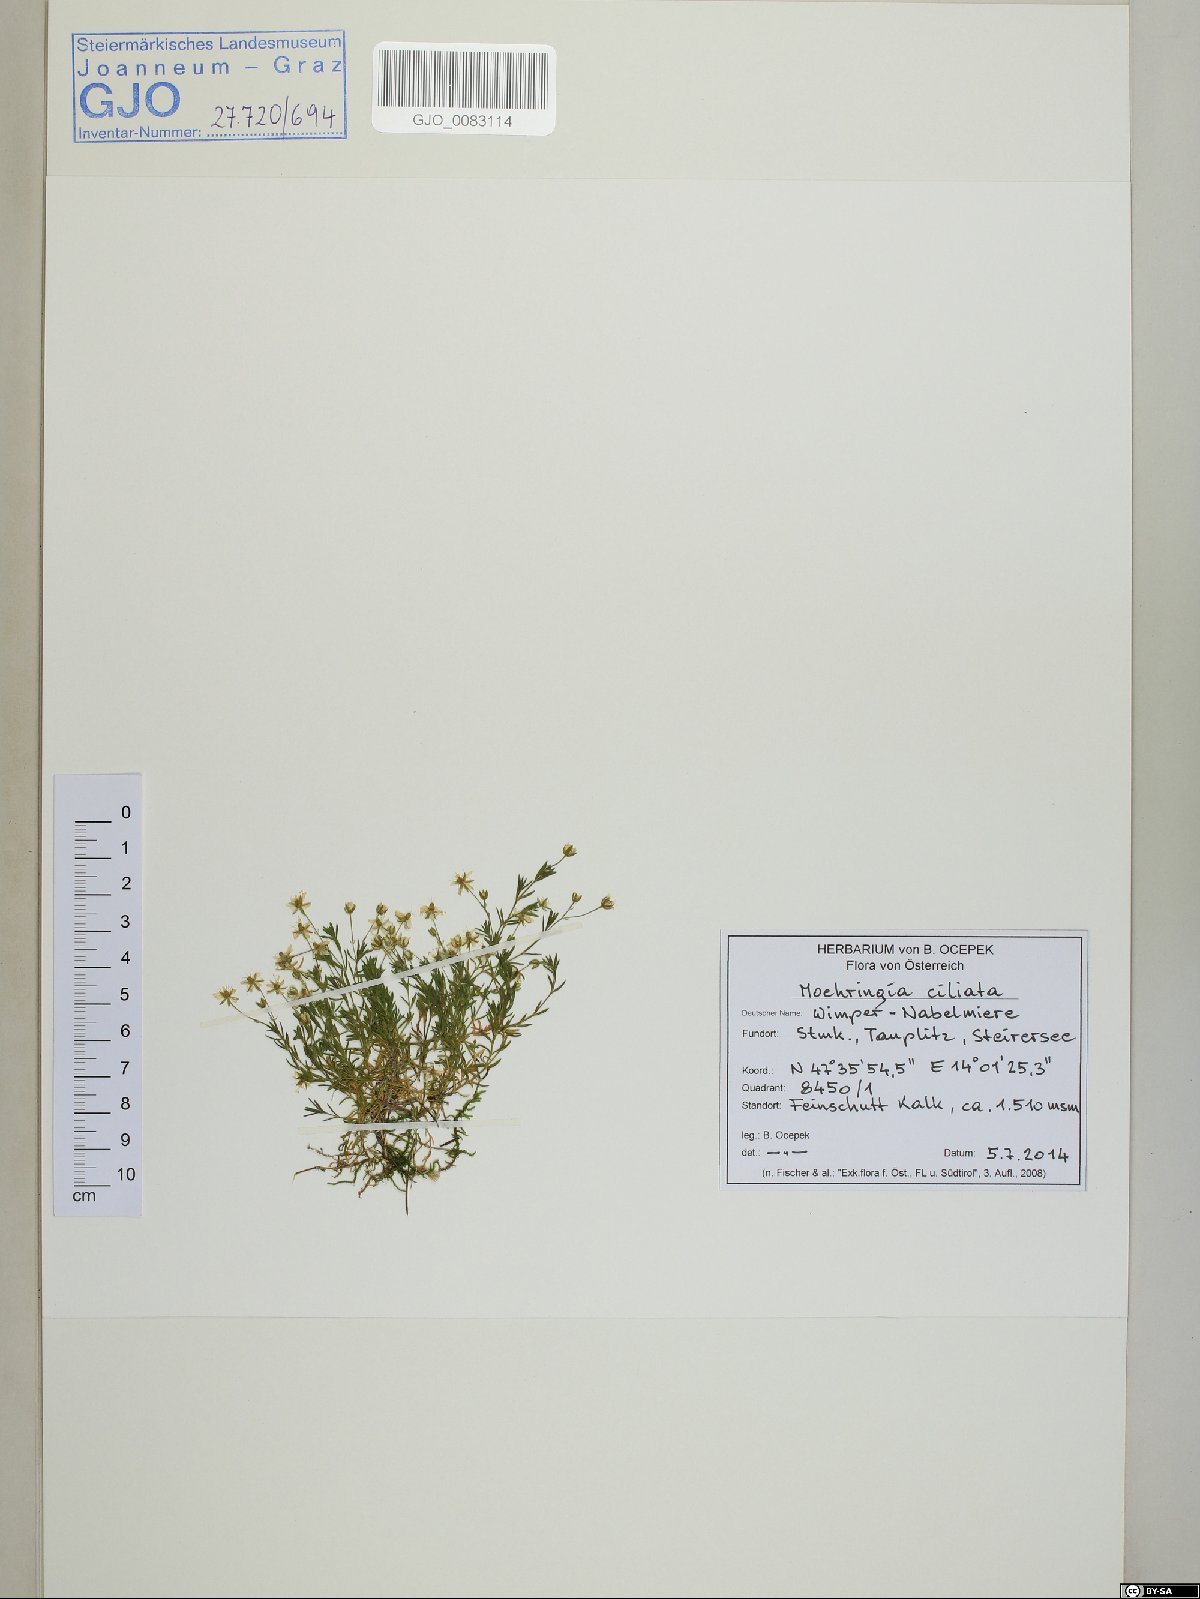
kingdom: Plantae
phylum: Tracheophyta
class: Magnoliopsida
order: Caryophyllales
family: Caryophyllaceae
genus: Moehringia
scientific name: Moehringia ciliata
